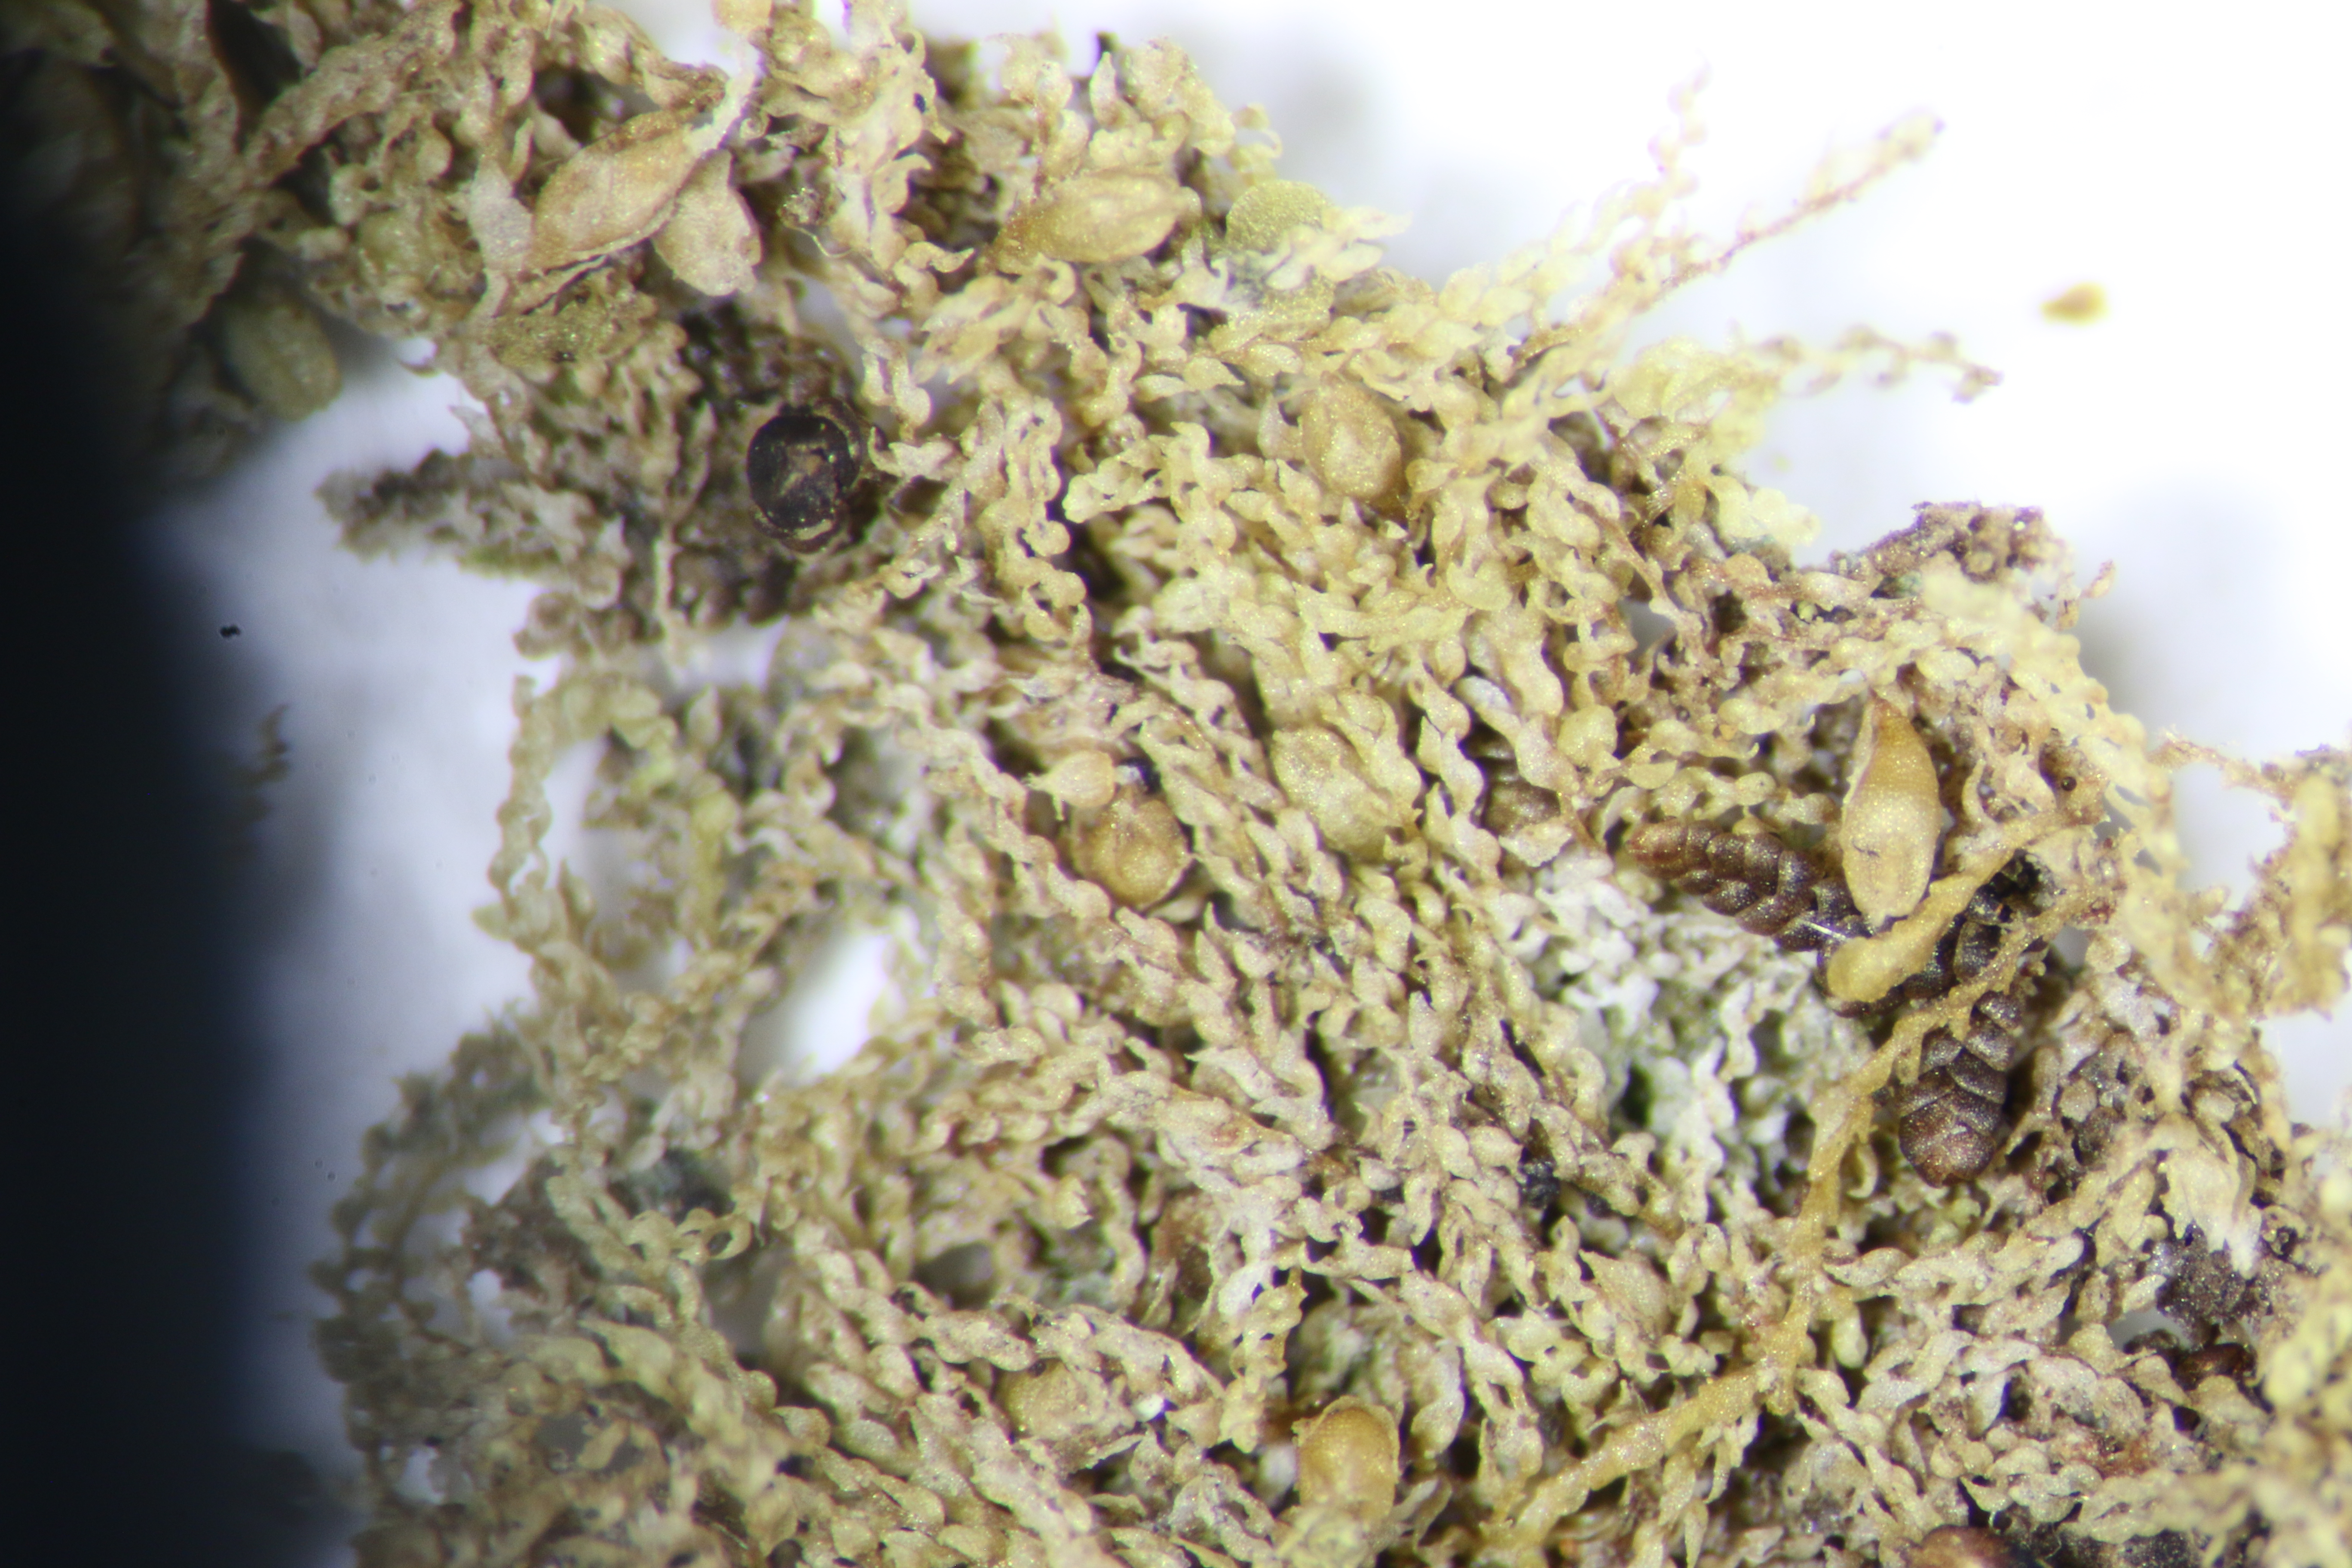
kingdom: Plantae
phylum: Marchantiophyta
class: Jungermanniopsida
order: Porellales
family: Lejeuneaceae
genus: Drepanolejeunea
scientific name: Drepanolejeunea aucklandica
